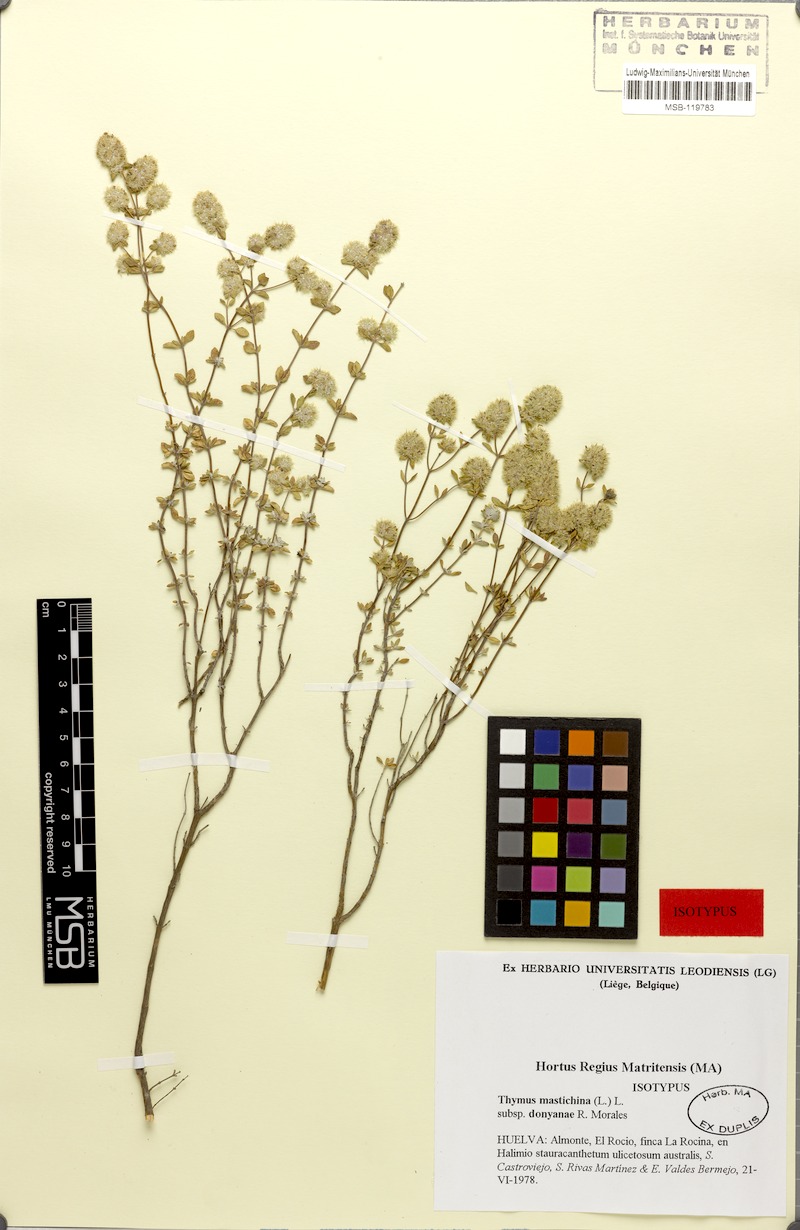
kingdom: Plantae
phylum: Tracheophyta
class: Magnoliopsida
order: Lamiales
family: Lamiaceae
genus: Thymus
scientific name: Thymus mastichina
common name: Mastic thyme
